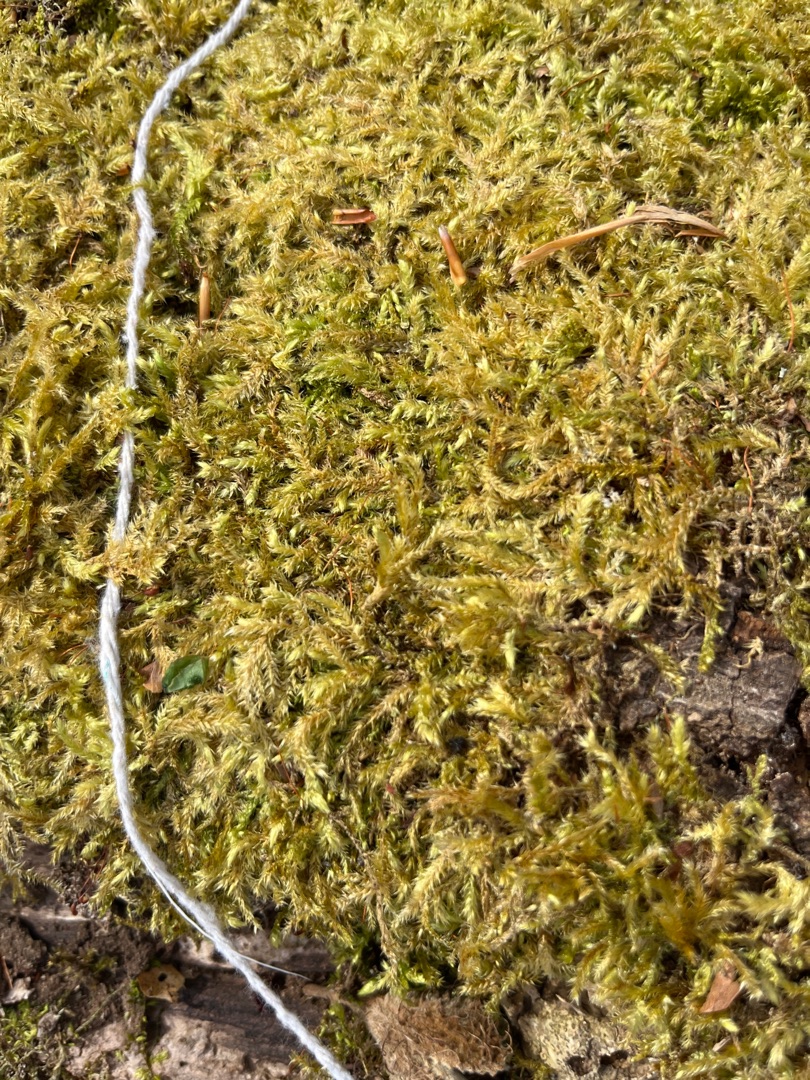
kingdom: Plantae
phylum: Bryophyta
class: Bryopsida
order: Hypnales
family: Brachytheciaceae
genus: Brachythecium
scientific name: Brachythecium rutabulum
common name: Almindelig kortkapsel
